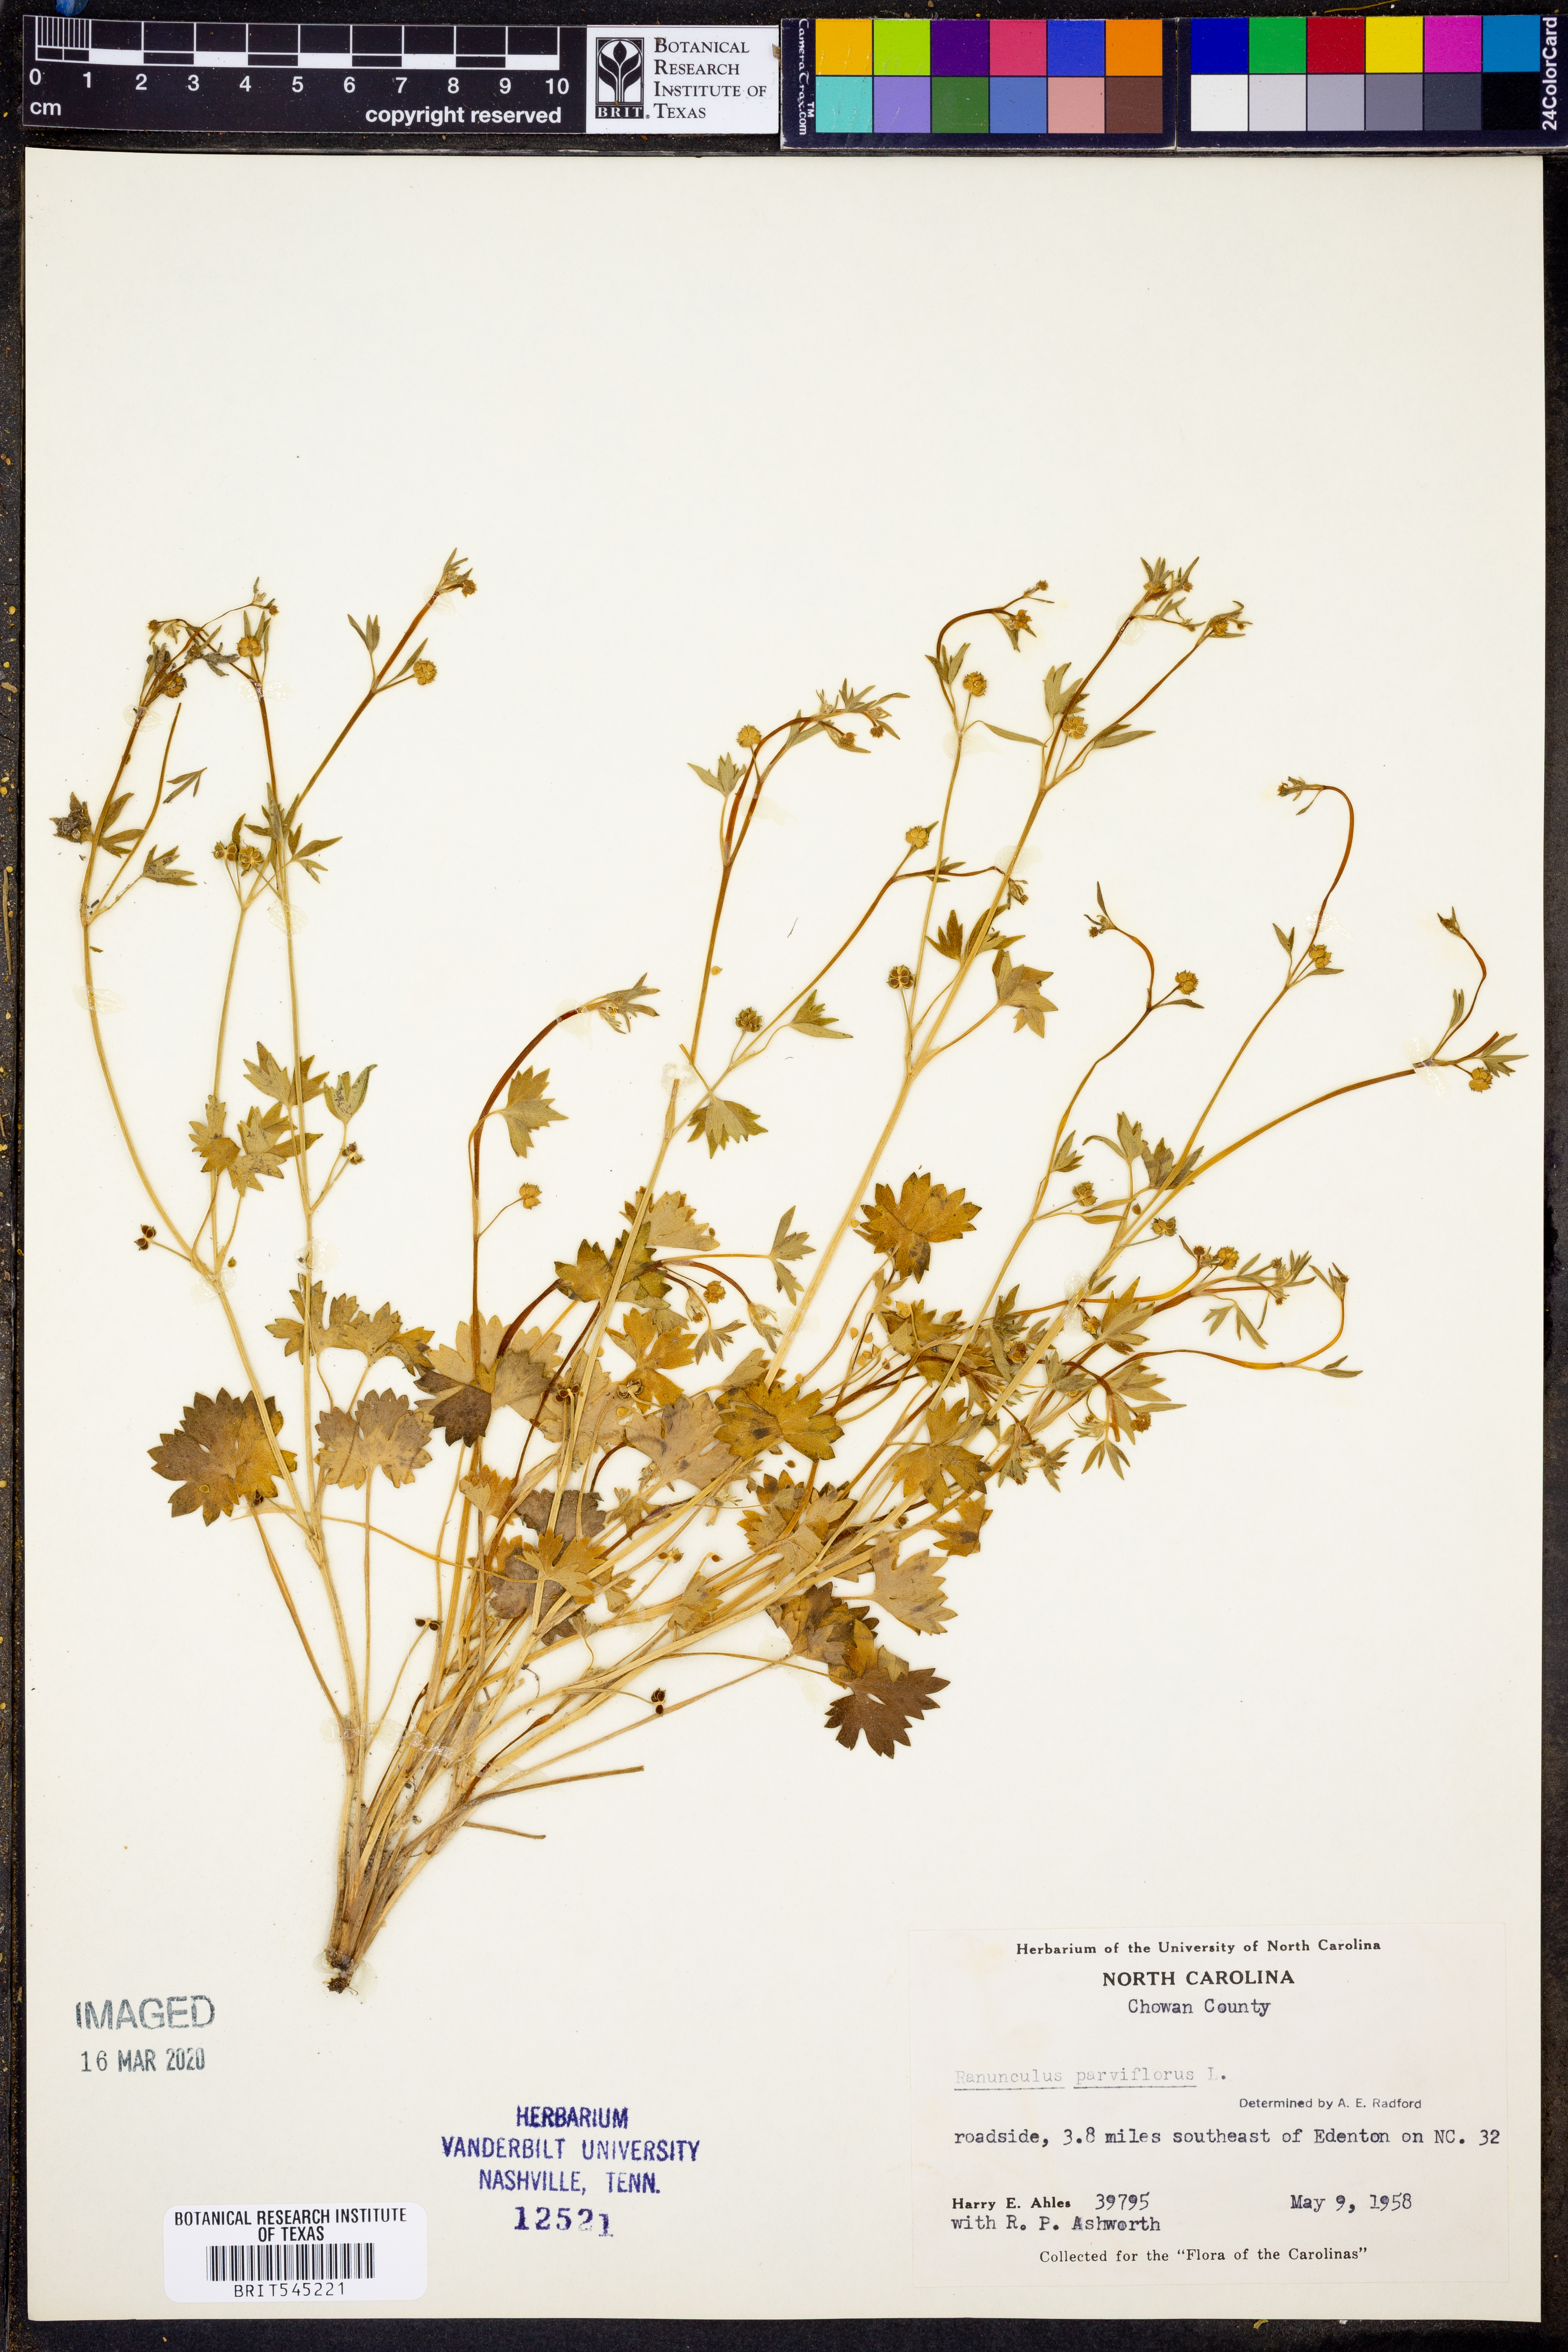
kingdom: Plantae
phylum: Tracheophyta
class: Magnoliopsida
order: Ranunculales
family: Ranunculaceae
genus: Ranunculus
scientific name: Ranunculus parviflorus
